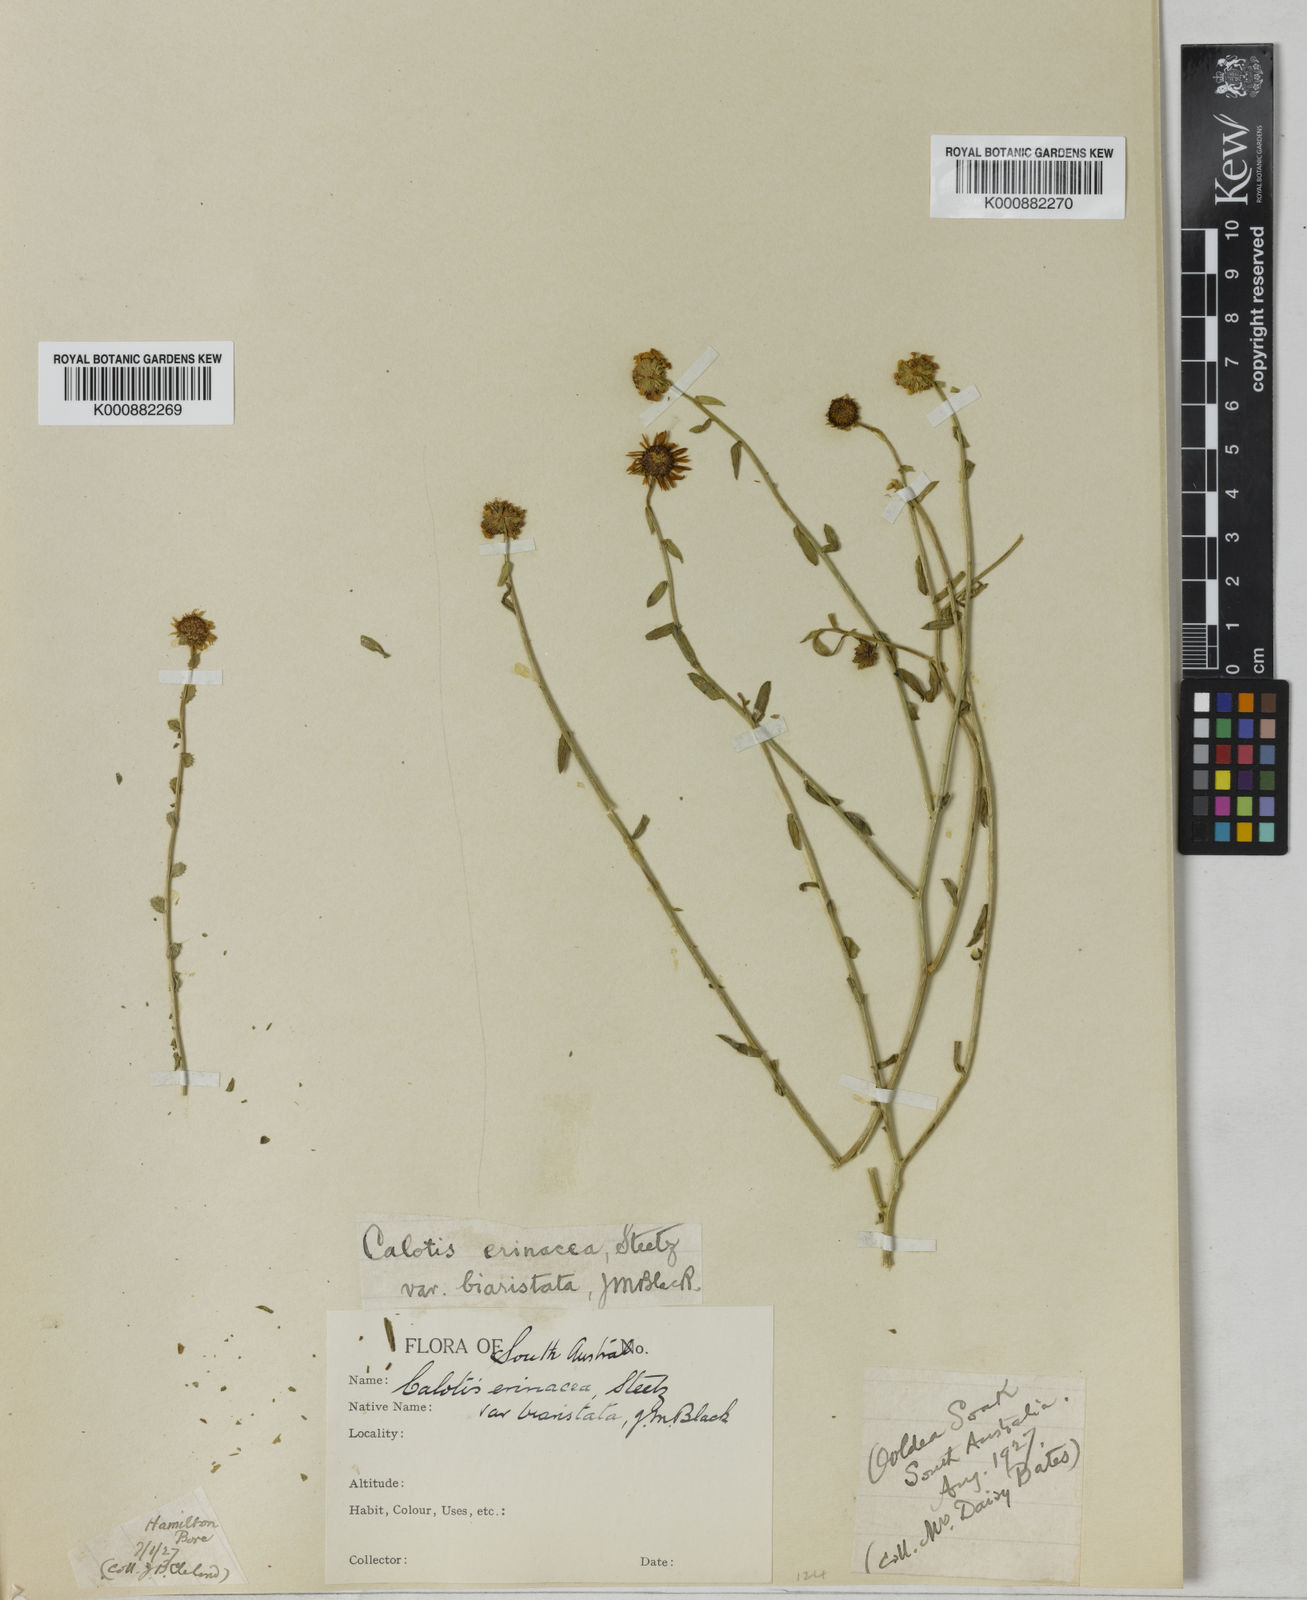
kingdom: Plantae
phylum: Tracheophyta
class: Magnoliopsida
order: Asterales
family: Asteraceae
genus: Calotis
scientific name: Calotis erinacea
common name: Tangled bur daisy
